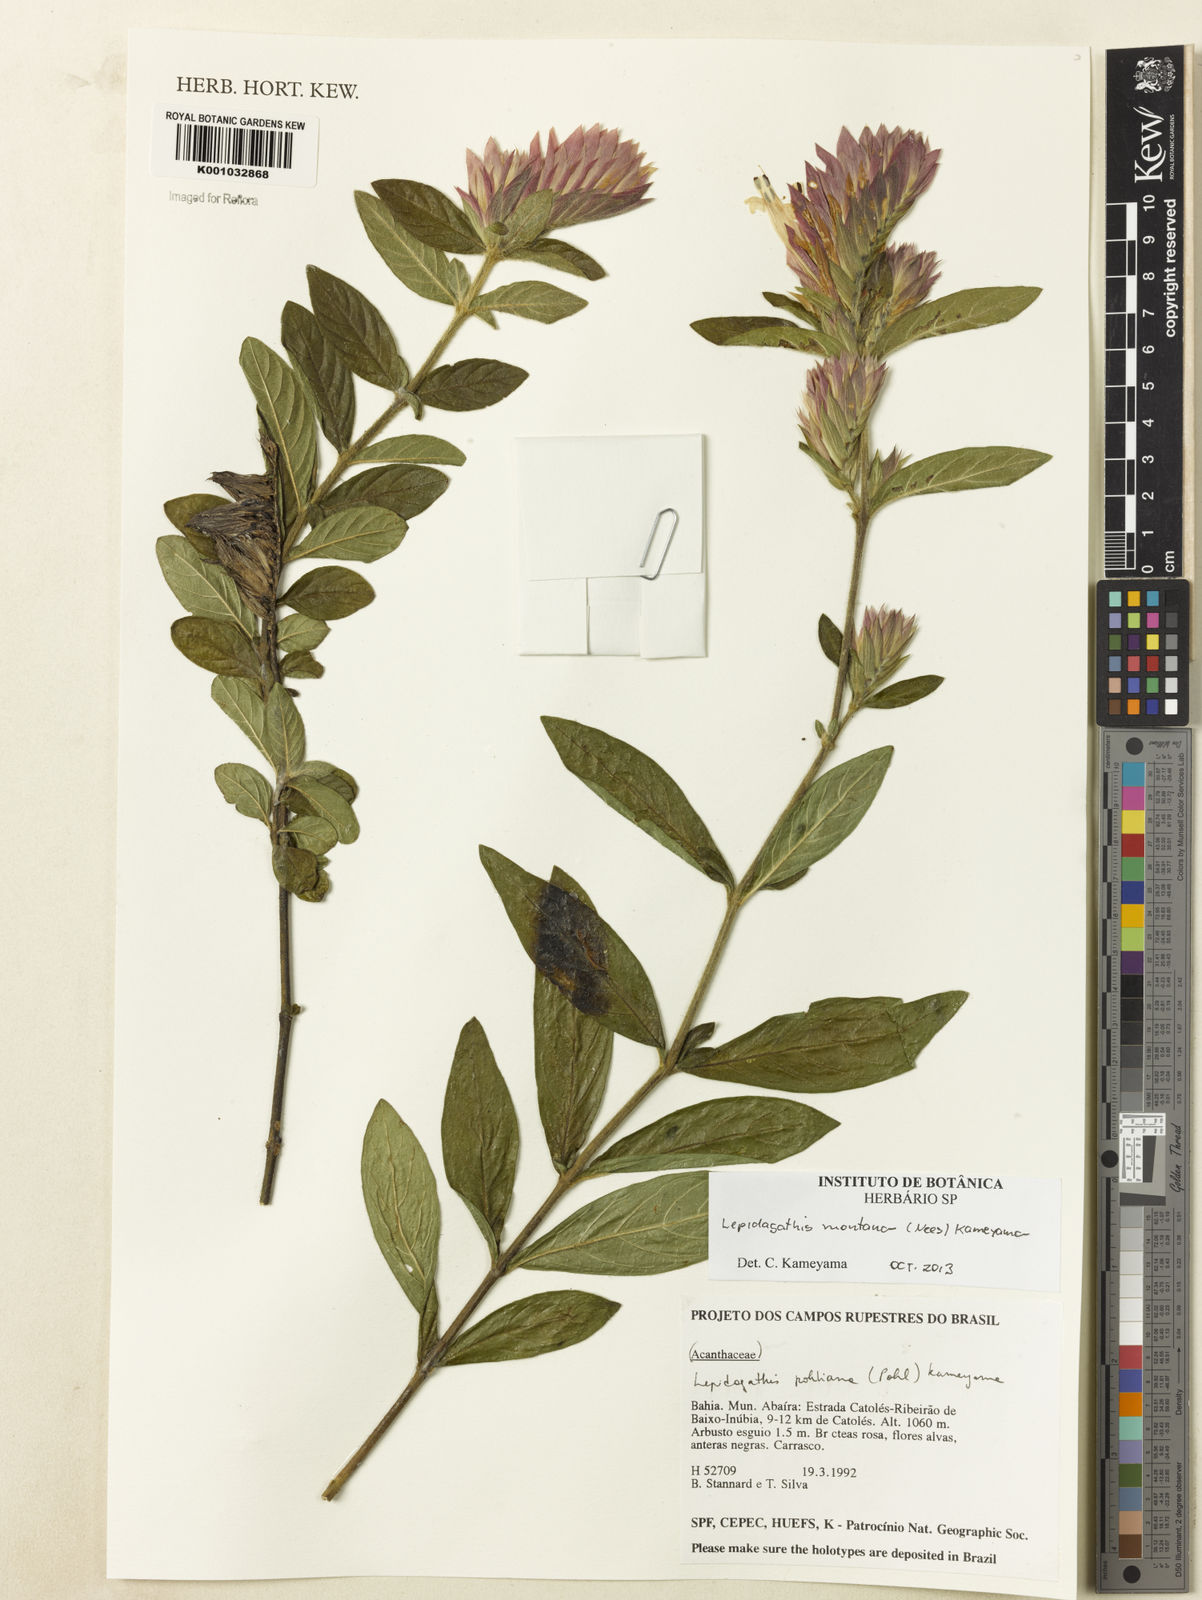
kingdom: Plantae
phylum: Tracheophyta
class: Magnoliopsida
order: Lamiales
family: Acanthaceae
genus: Lepidagathis
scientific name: Lepidagathis montana
